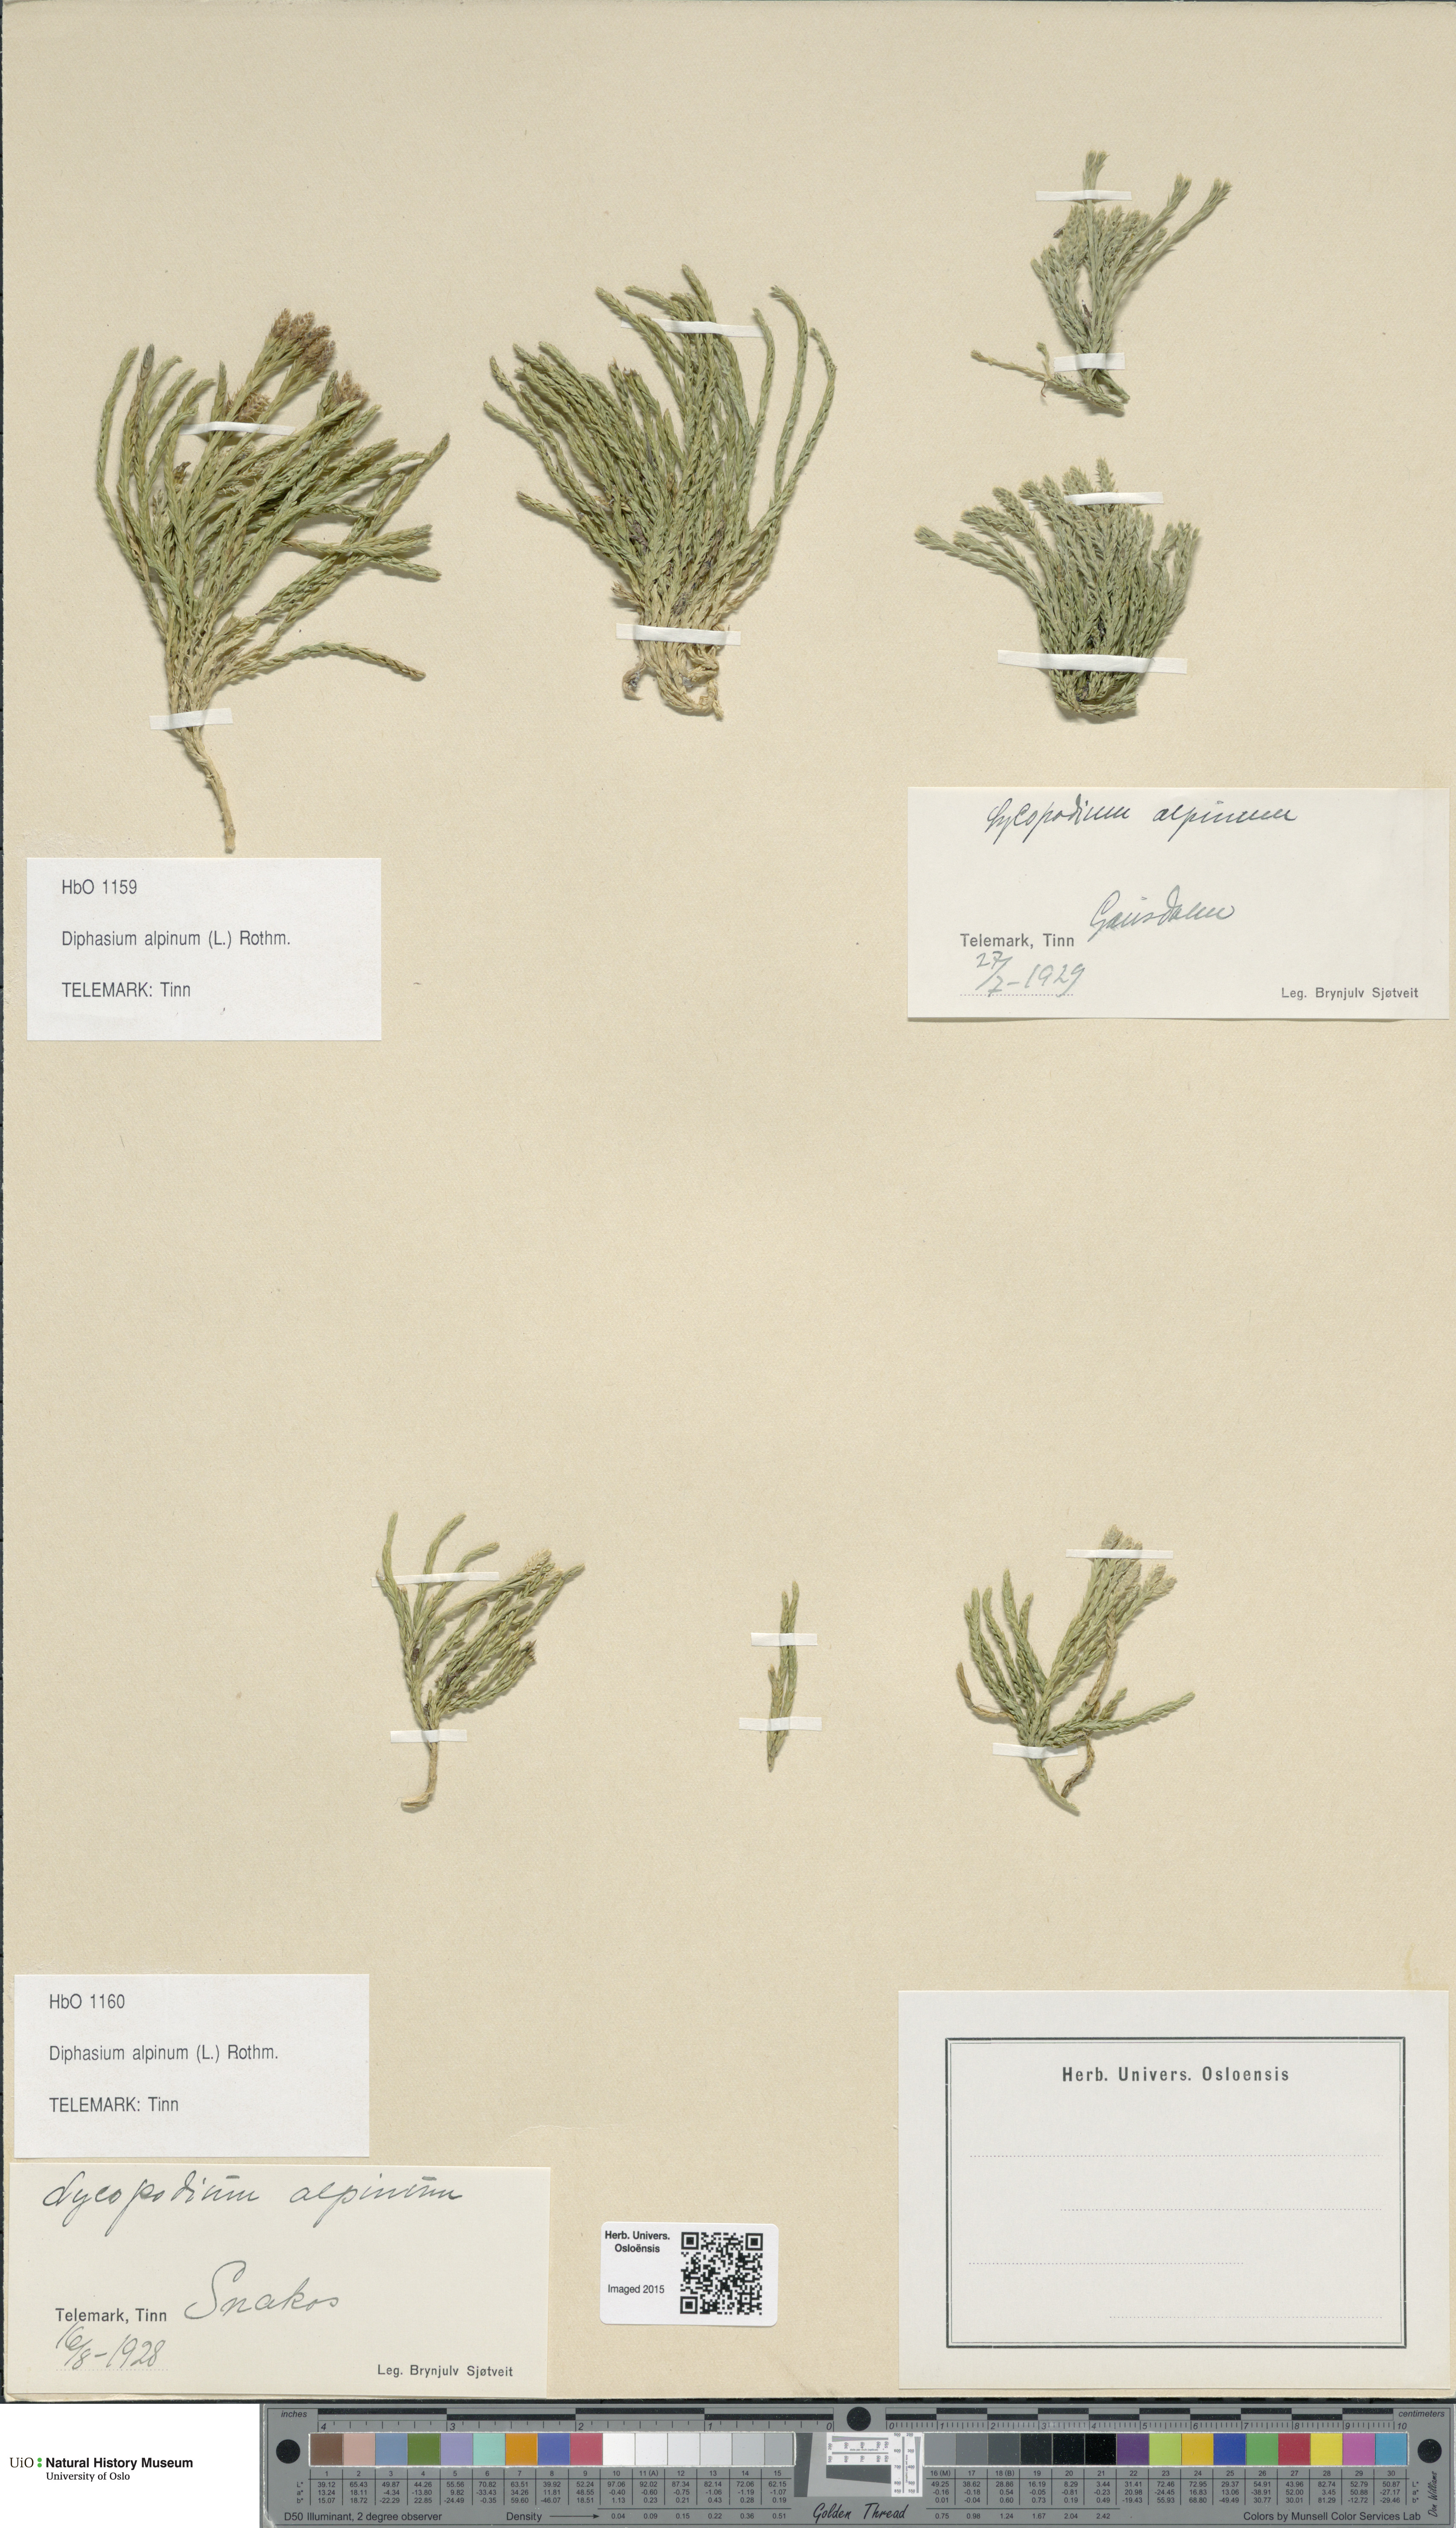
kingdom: Plantae
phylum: Tracheophyta
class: Lycopodiopsida
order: Lycopodiales
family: Lycopodiaceae
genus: Diphasiastrum
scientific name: Diphasiastrum alpinum
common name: Alpine clubmoss
